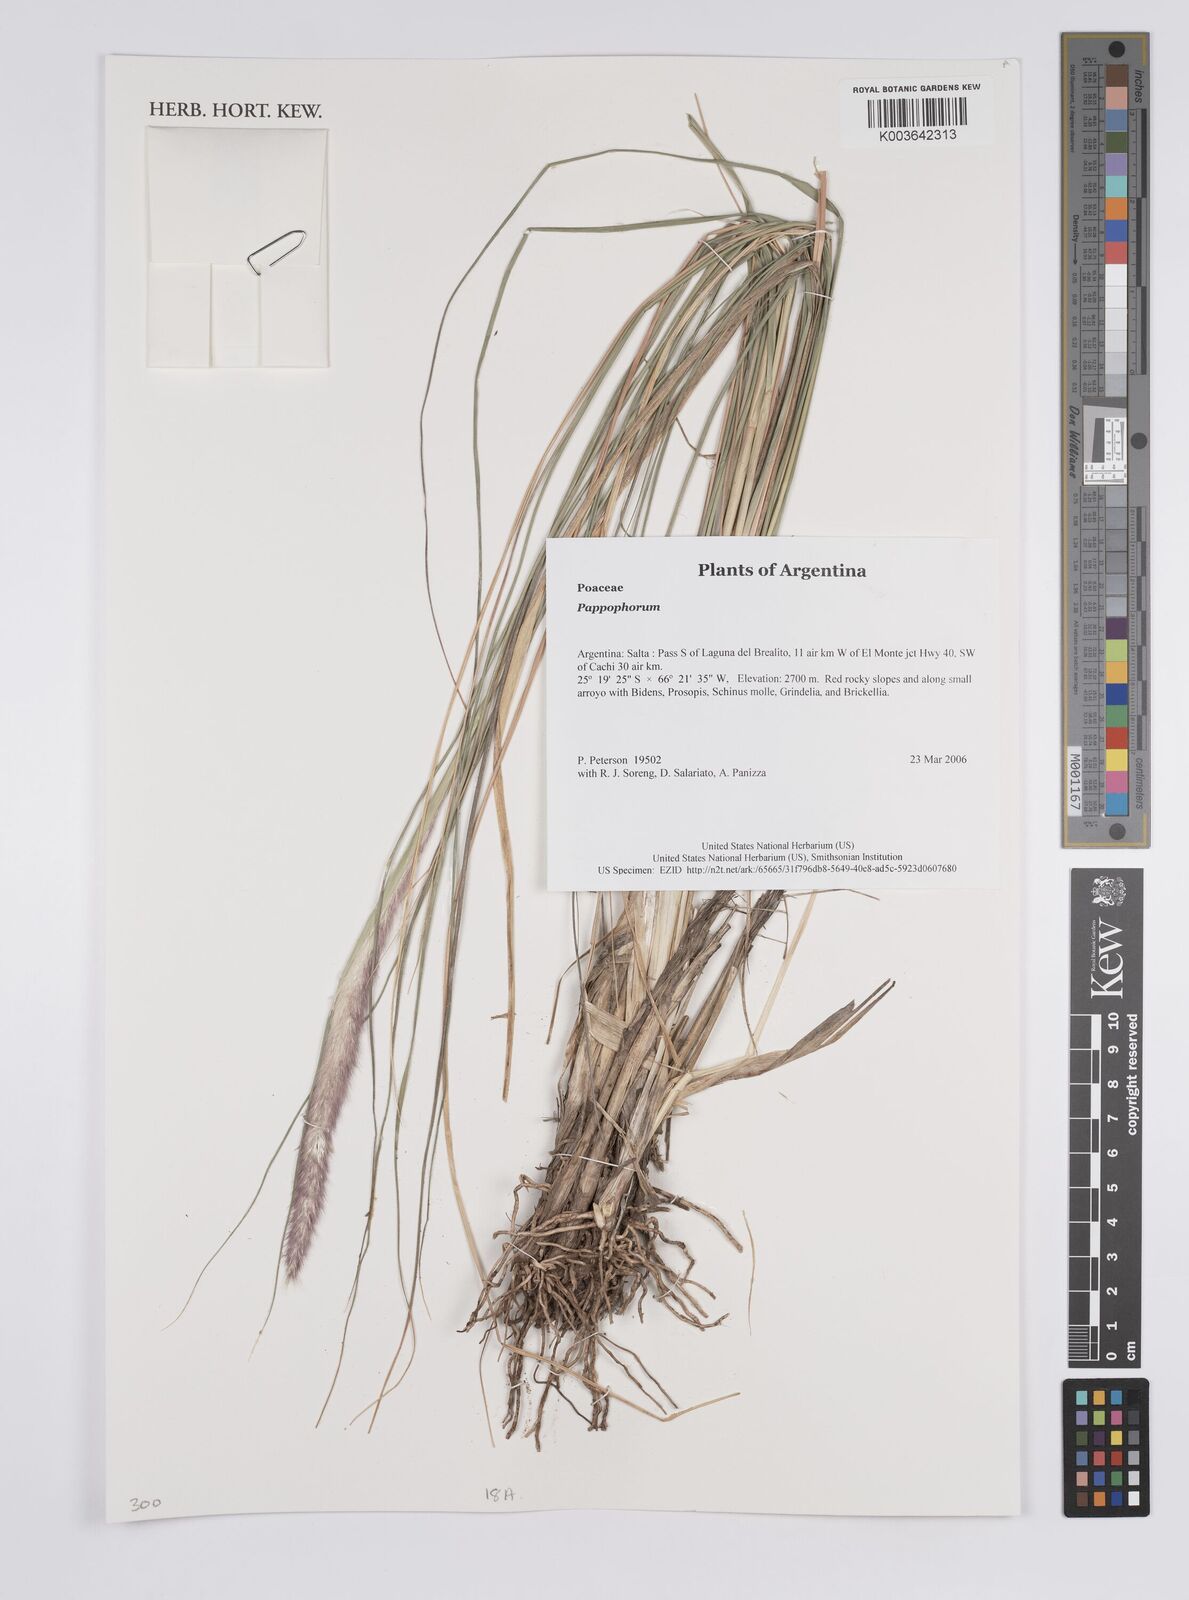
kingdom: Plantae
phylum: Tracheophyta
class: Liliopsida
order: Poales
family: Poaceae
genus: Pappophorum
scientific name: Pappophorum
